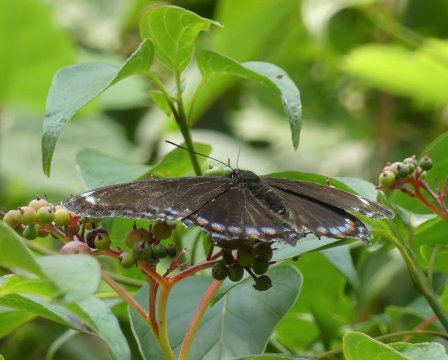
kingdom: Animalia
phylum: Arthropoda
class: Insecta
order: Lepidoptera
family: Nymphalidae
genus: Limenitis
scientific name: Limenitis arthemis
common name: Red-spotted Admiral
